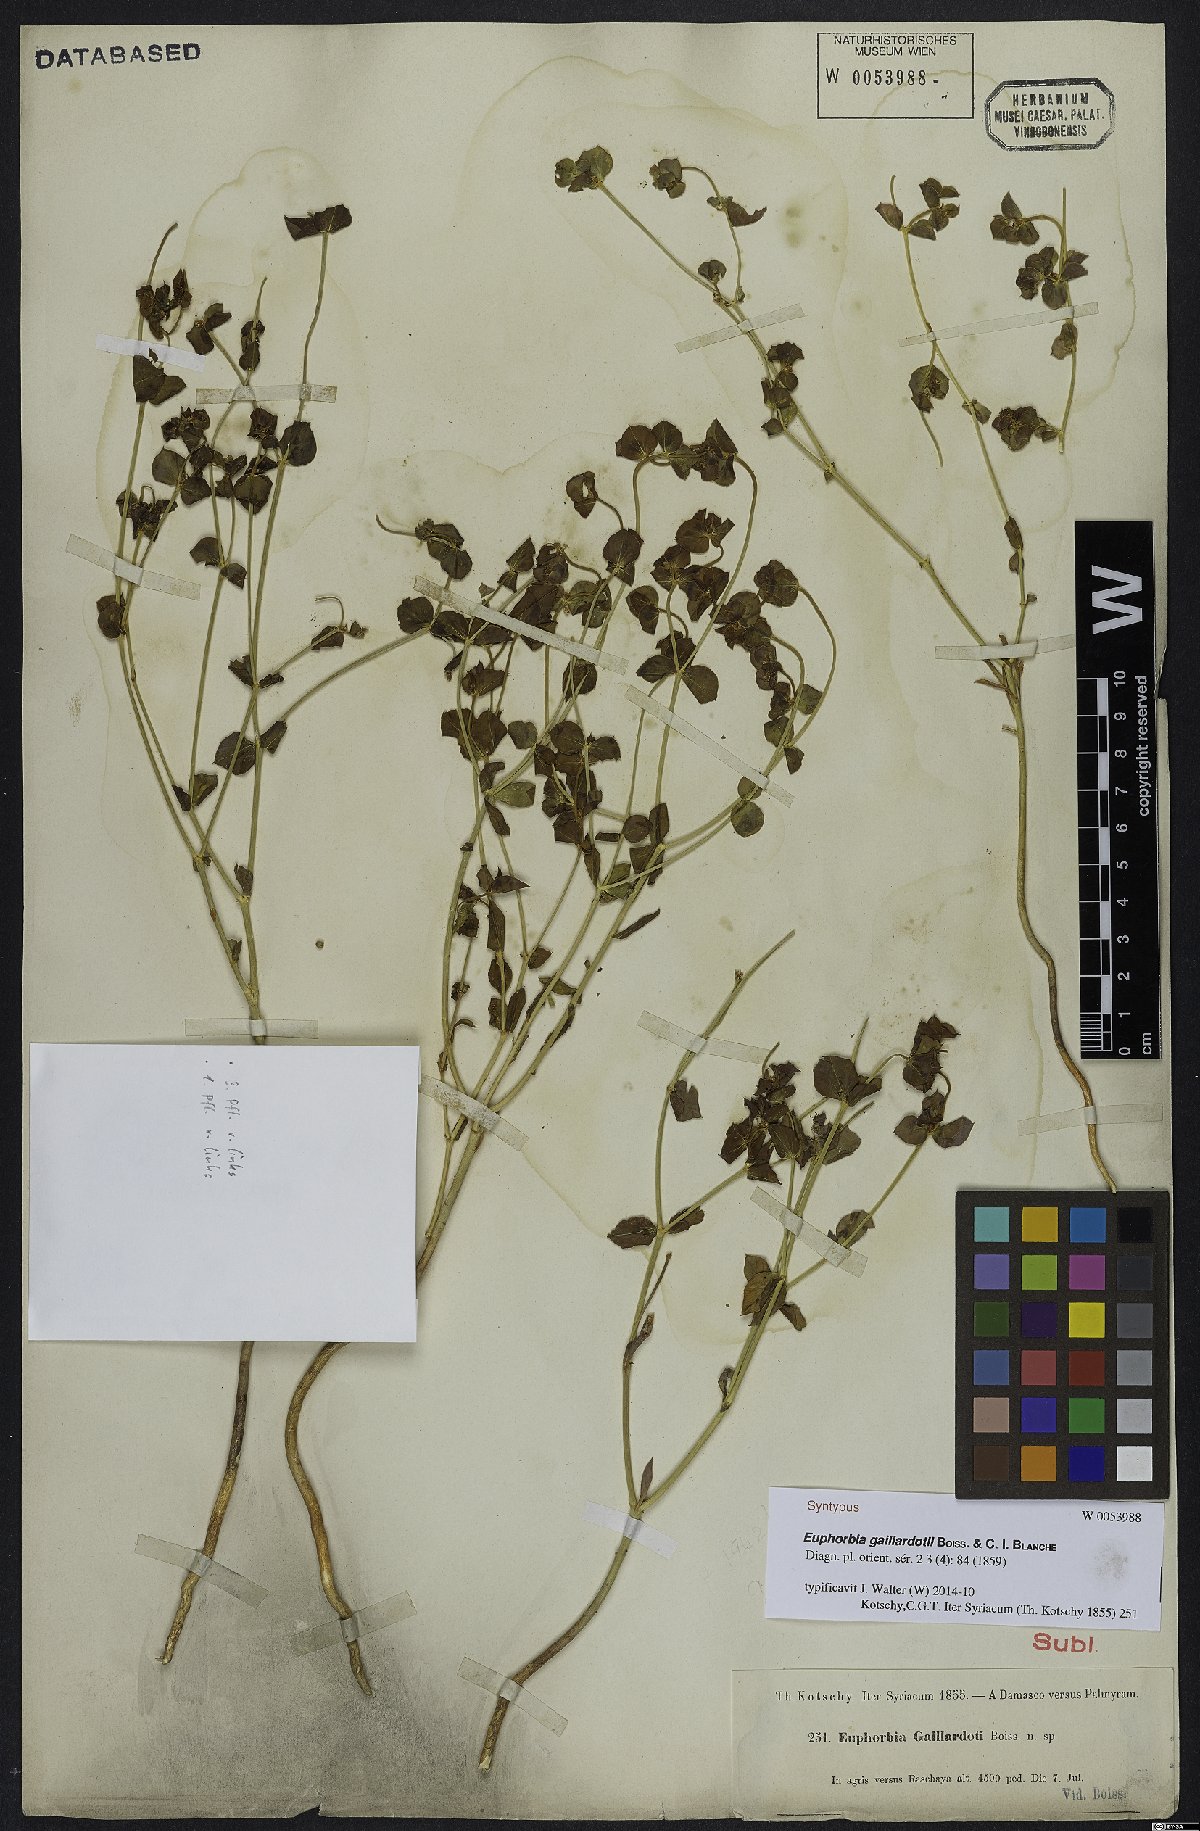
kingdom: Plantae
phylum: Tracheophyta
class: Magnoliopsida
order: Malpighiales
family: Euphorbiaceae
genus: Euphorbia
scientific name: Euphorbia gaillardotii
